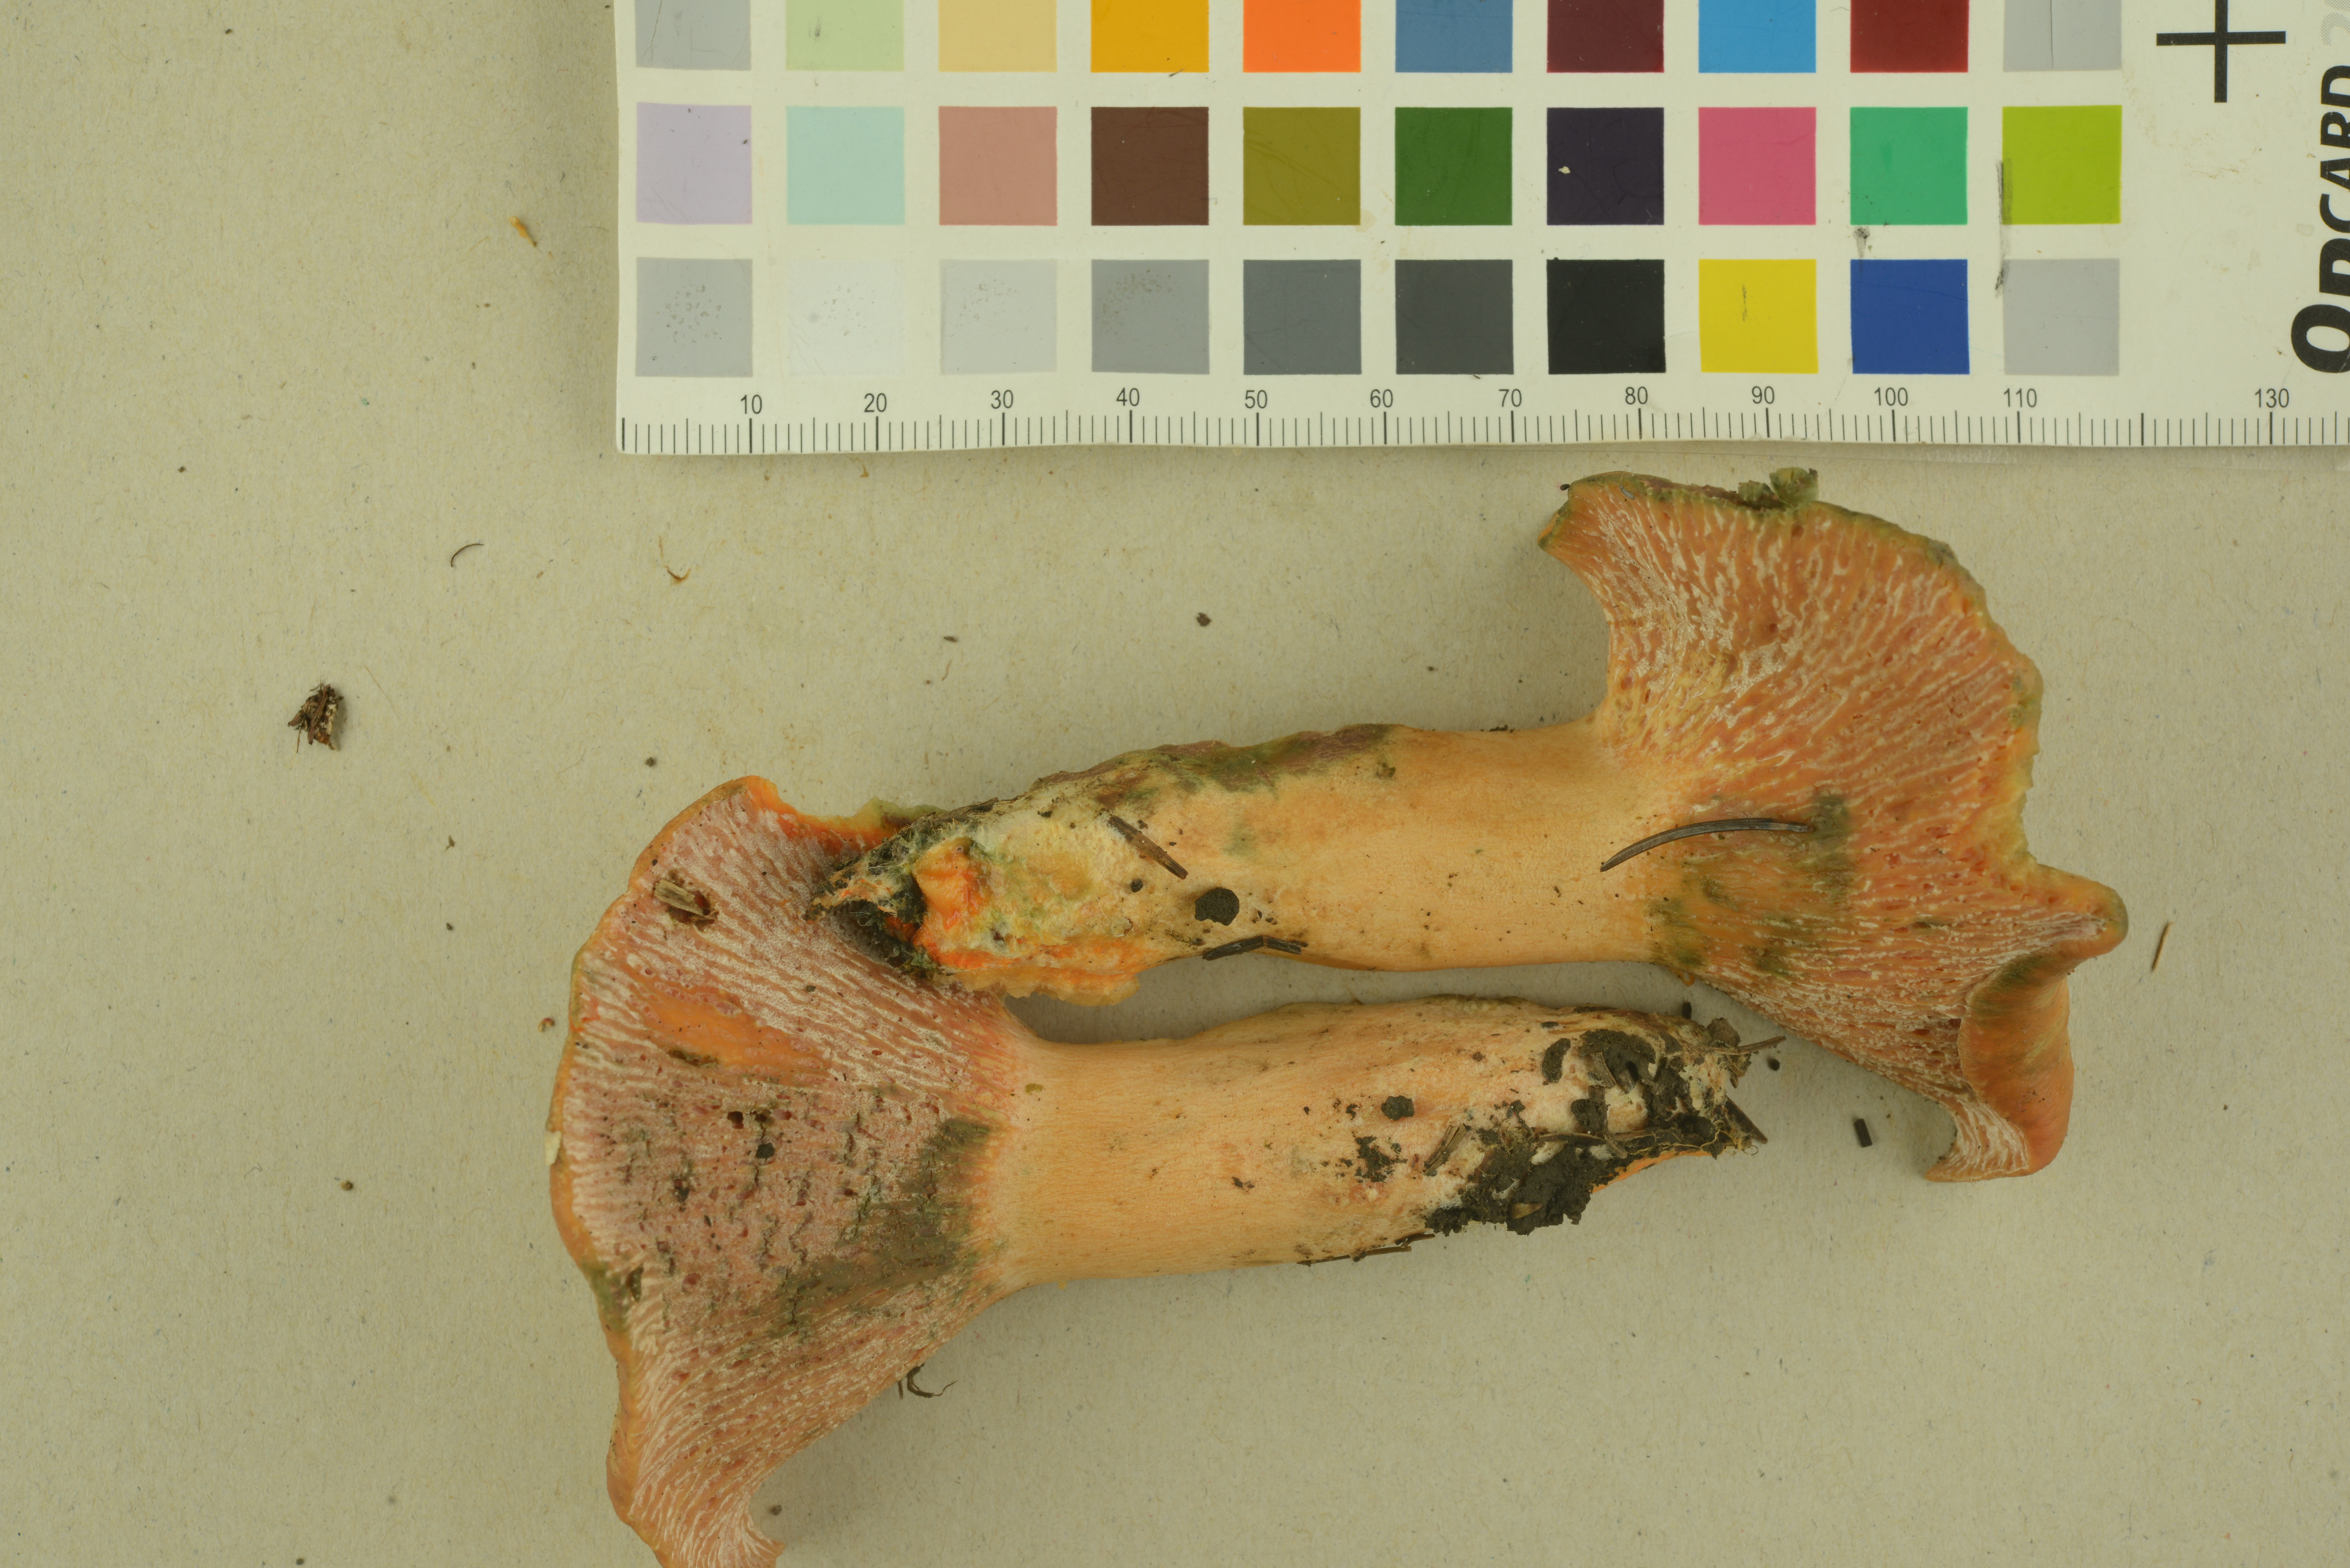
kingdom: Fungi
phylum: Ascomycota
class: Sordariomycetes
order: Hypocreales
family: Hypocreaceae
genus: Hypomyces
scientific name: Hypomyces lateritius
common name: Ochre gillgobbler
